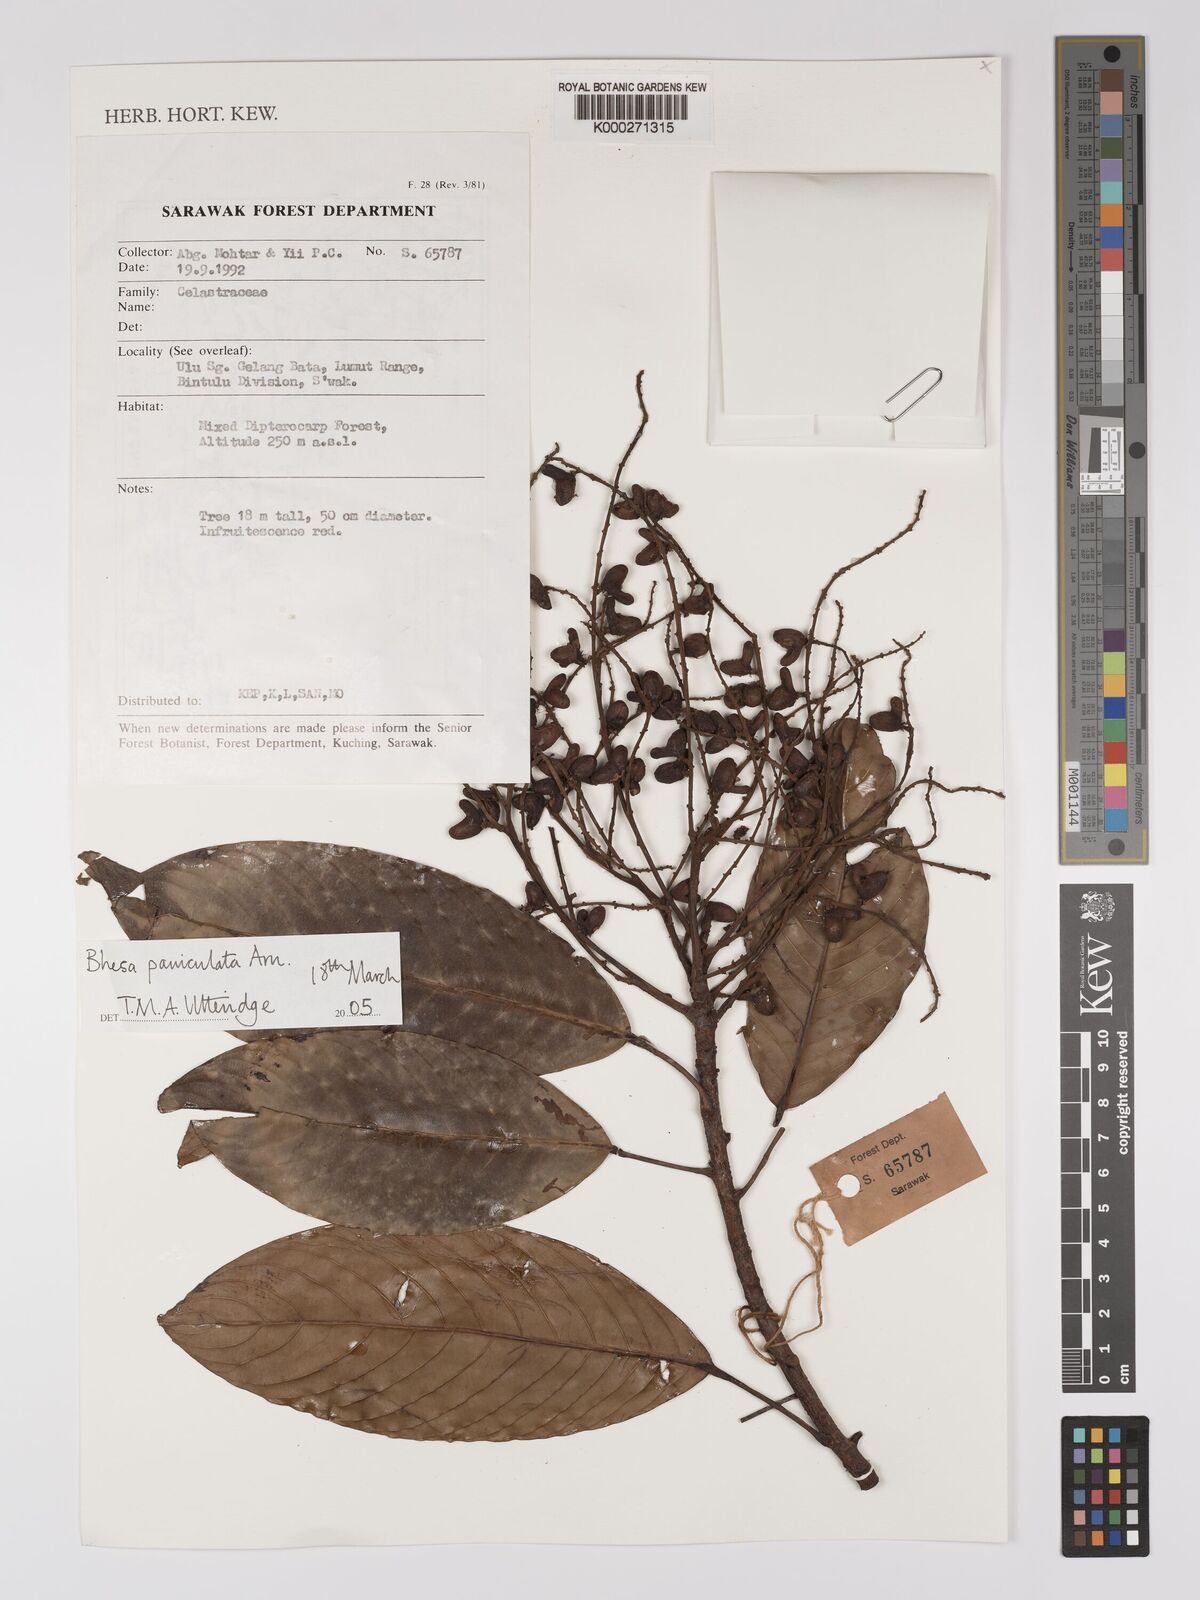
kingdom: Plantae
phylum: Tracheophyta
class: Magnoliopsida
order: Malpighiales
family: Centroplacaceae
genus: Bhesa
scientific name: Bhesa paniculata
